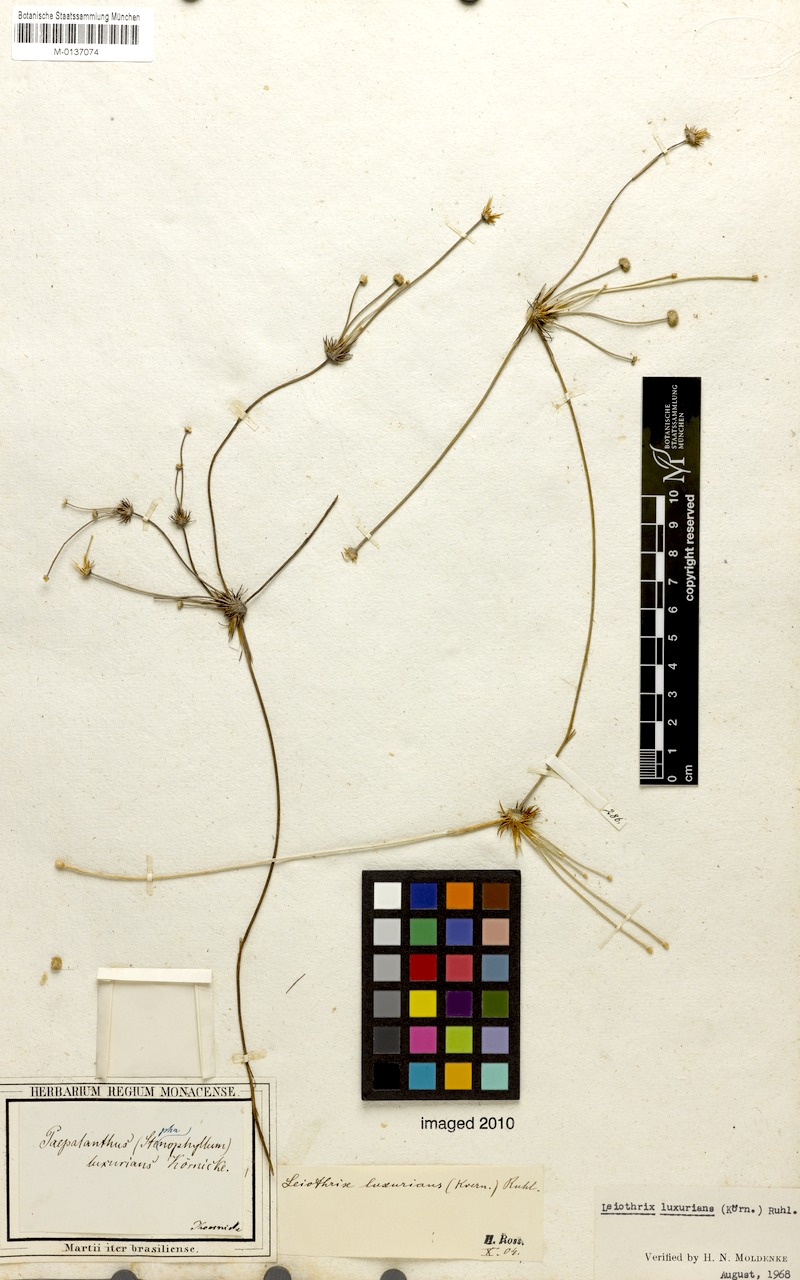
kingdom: Plantae
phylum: Tracheophyta
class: Liliopsida
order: Poales
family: Eriocaulaceae
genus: Leiothrix
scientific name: Leiothrix luxurians
